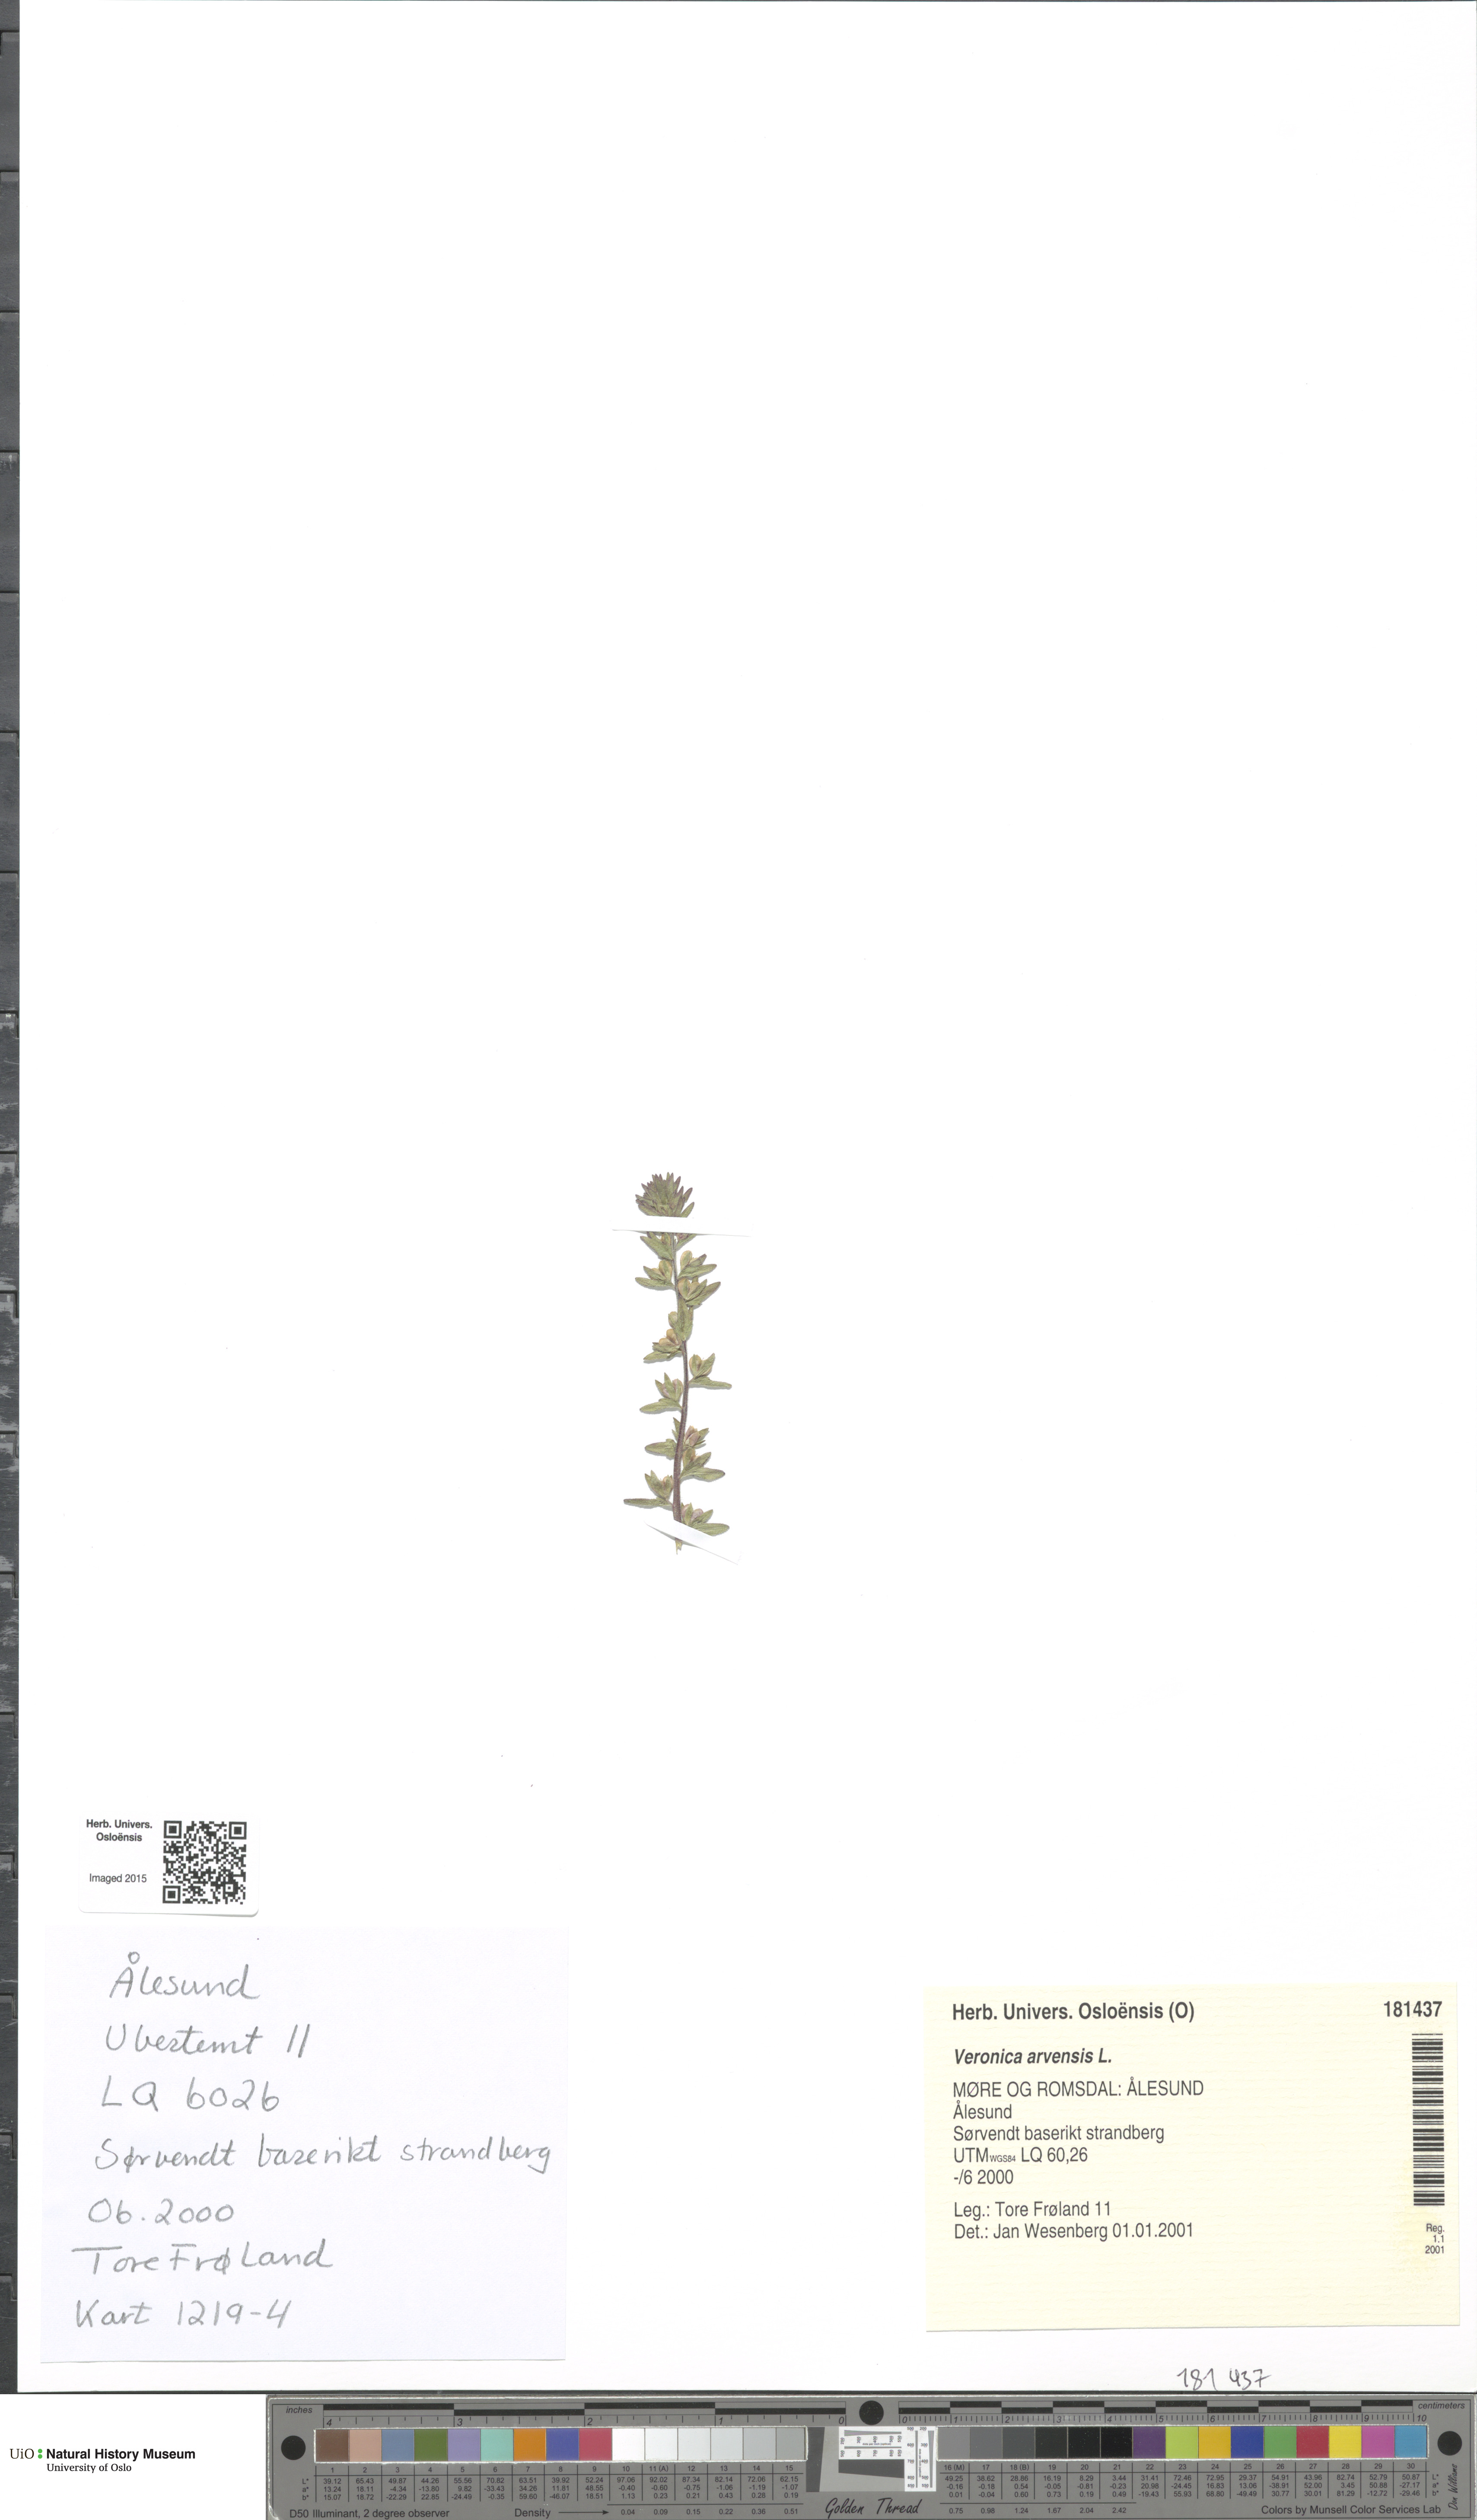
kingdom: Plantae
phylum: Tracheophyta
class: Magnoliopsida
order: Lamiales
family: Plantaginaceae
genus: Veronica
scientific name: Veronica arvensis
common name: Corn speedwell
